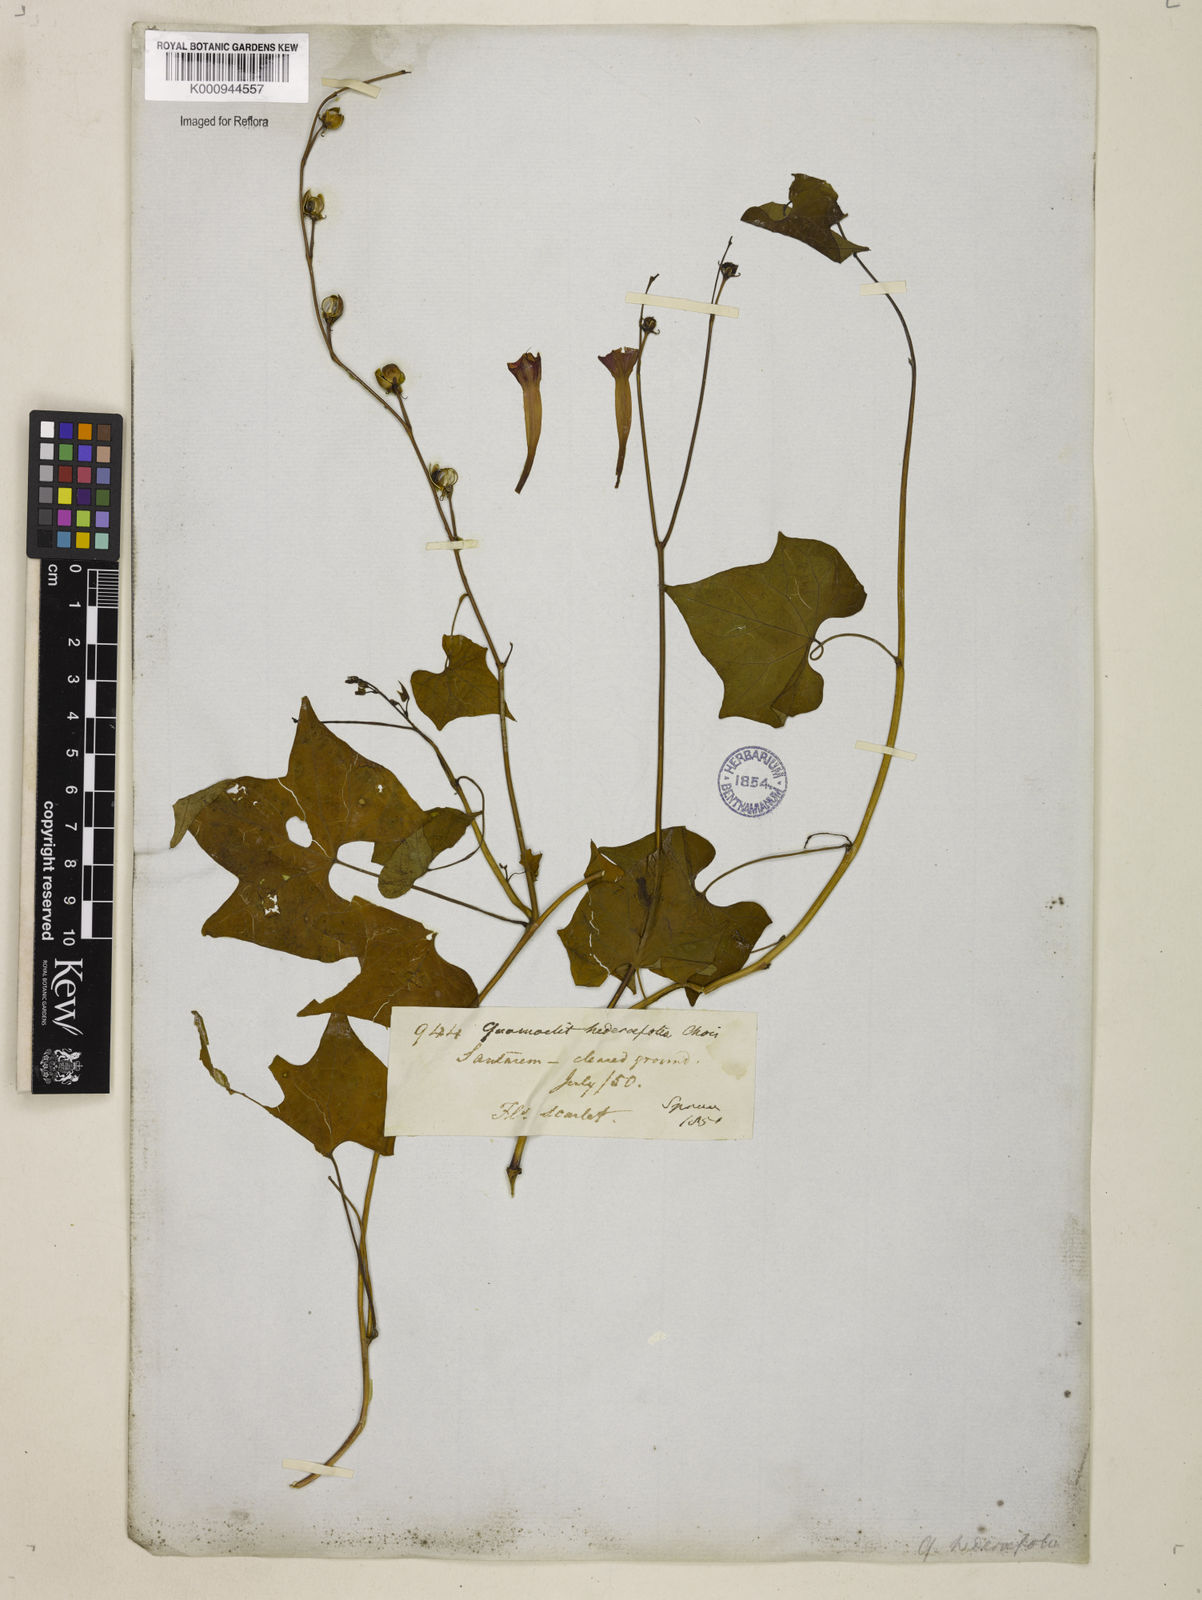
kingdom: Plantae
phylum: Tracheophyta
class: Magnoliopsida
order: Solanales
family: Convolvulaceae
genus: Ipomoea
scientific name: Ipomoea hederifolia
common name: Ivy-leaf morning-glory
